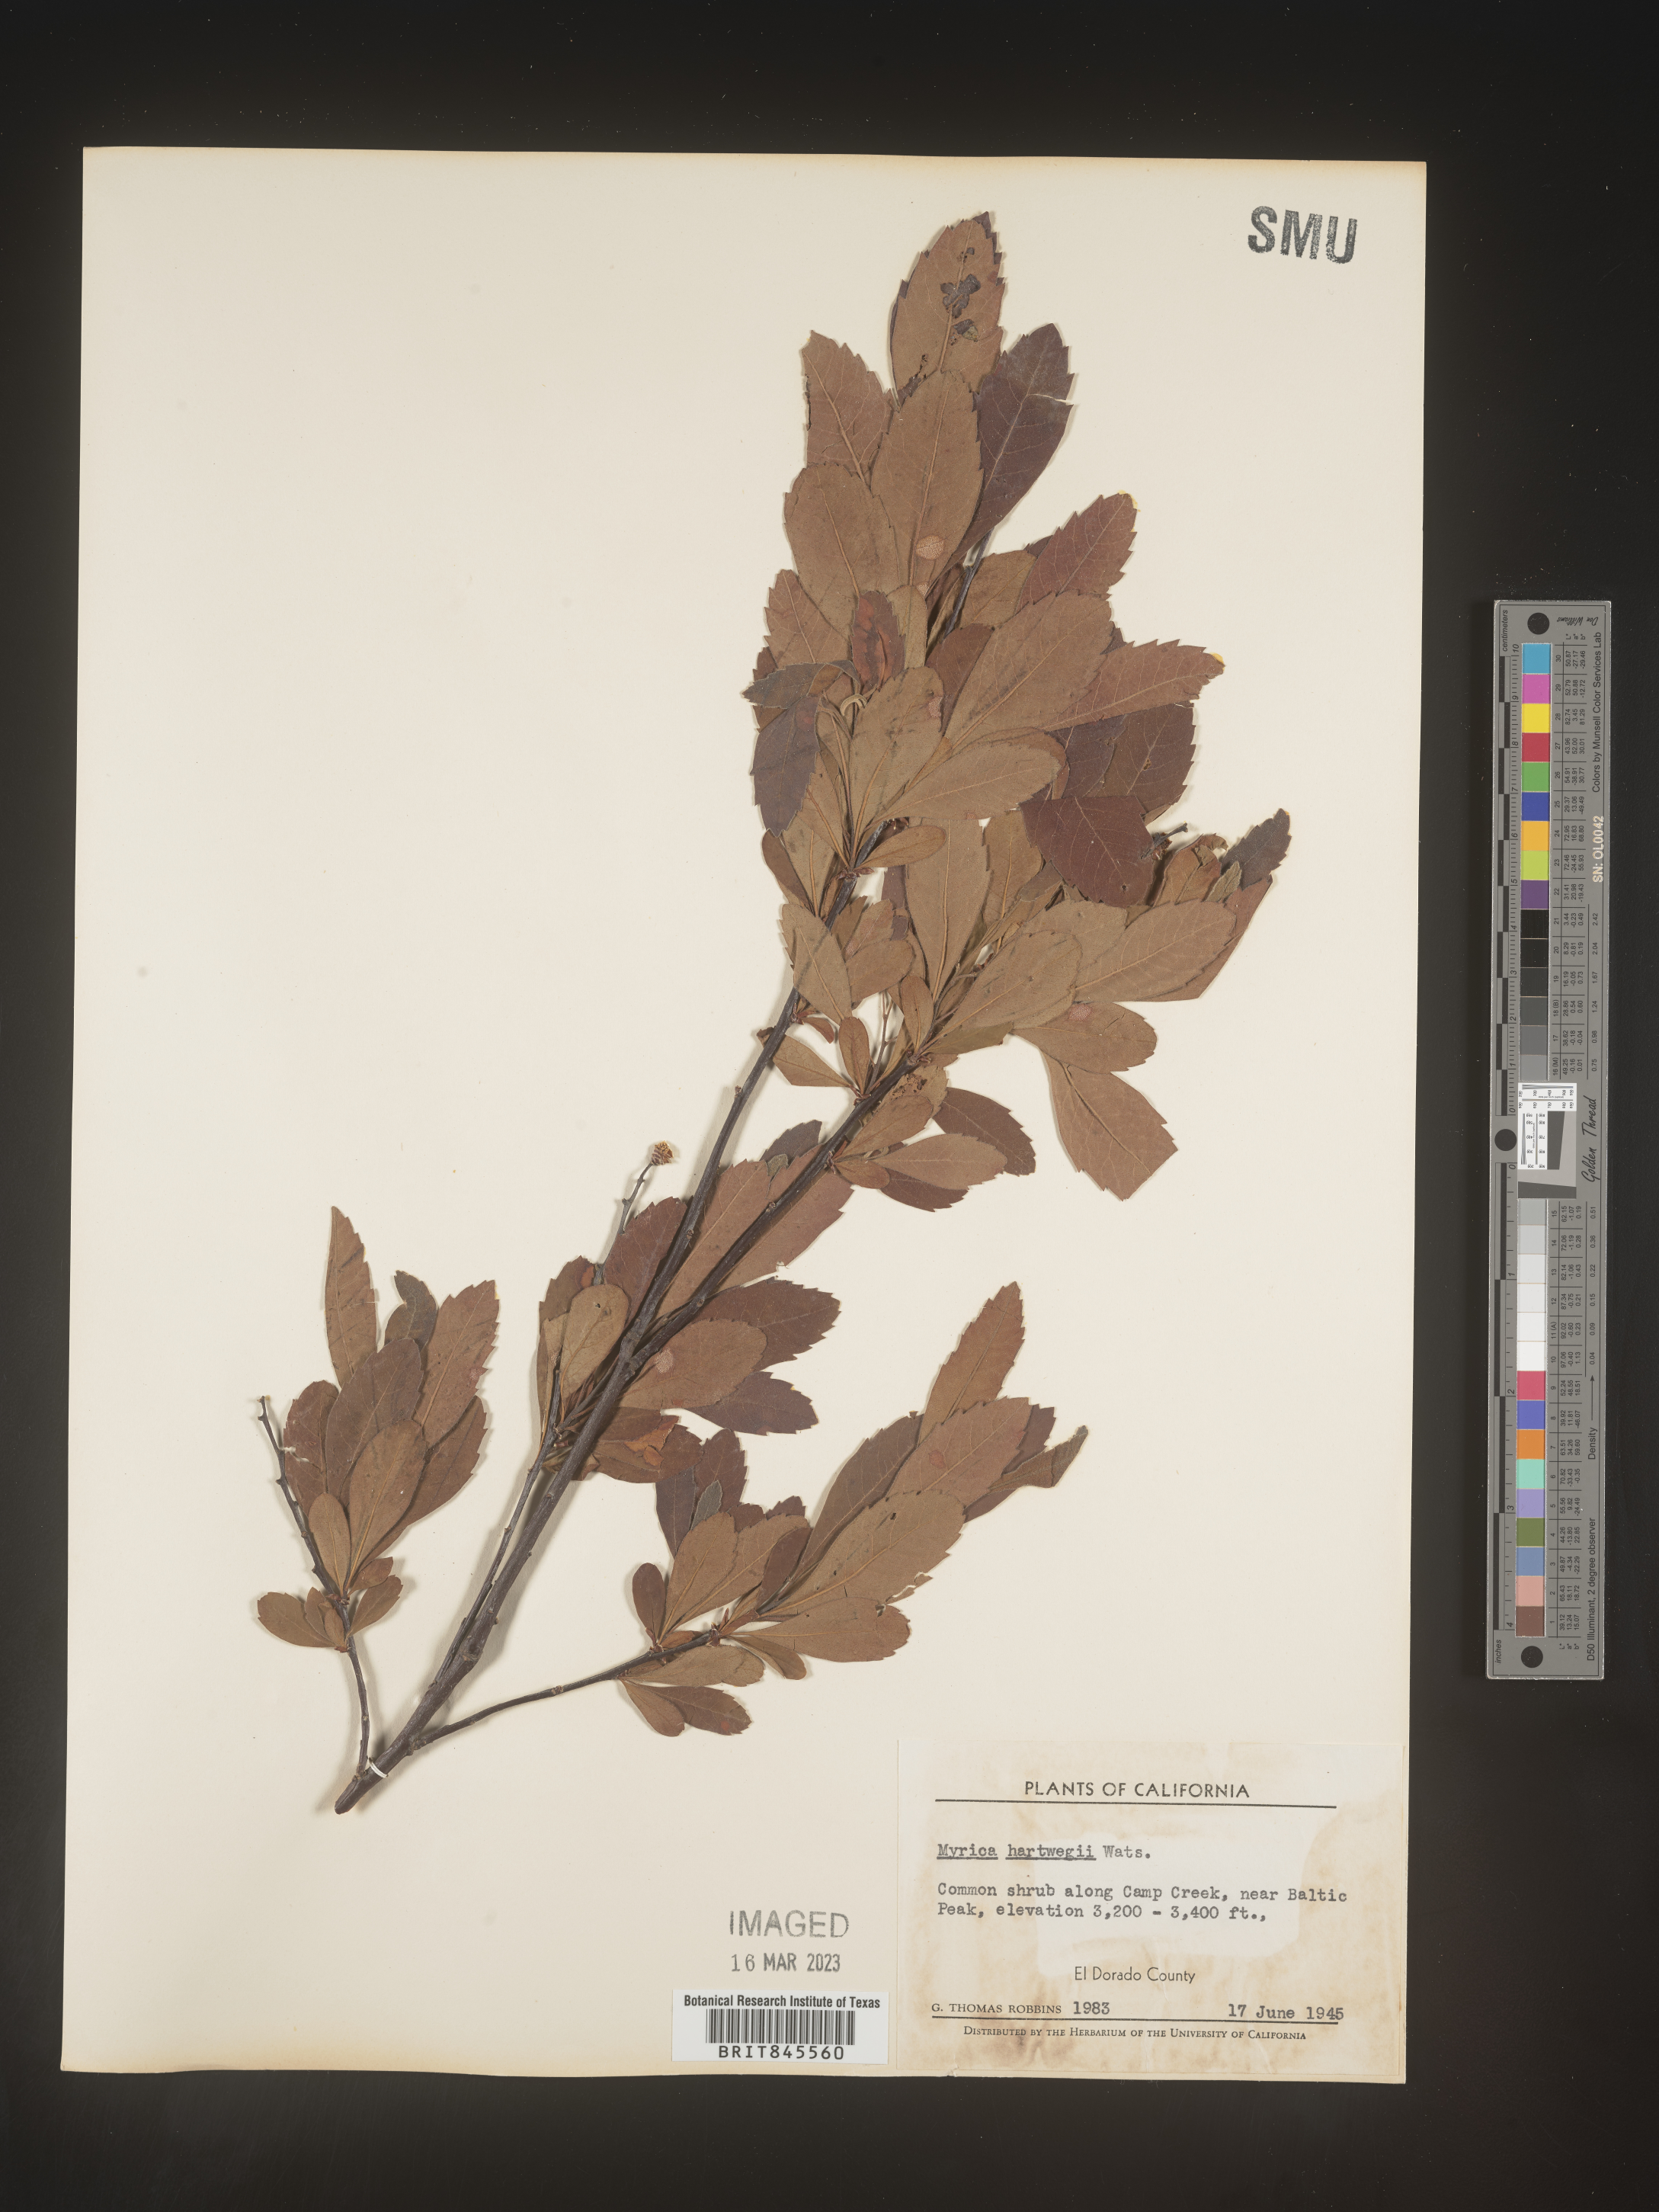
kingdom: Plantae
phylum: Tracheophyta
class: Magnoliopsida
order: Fagales
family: Myricaceae
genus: Myrica
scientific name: Myrica
